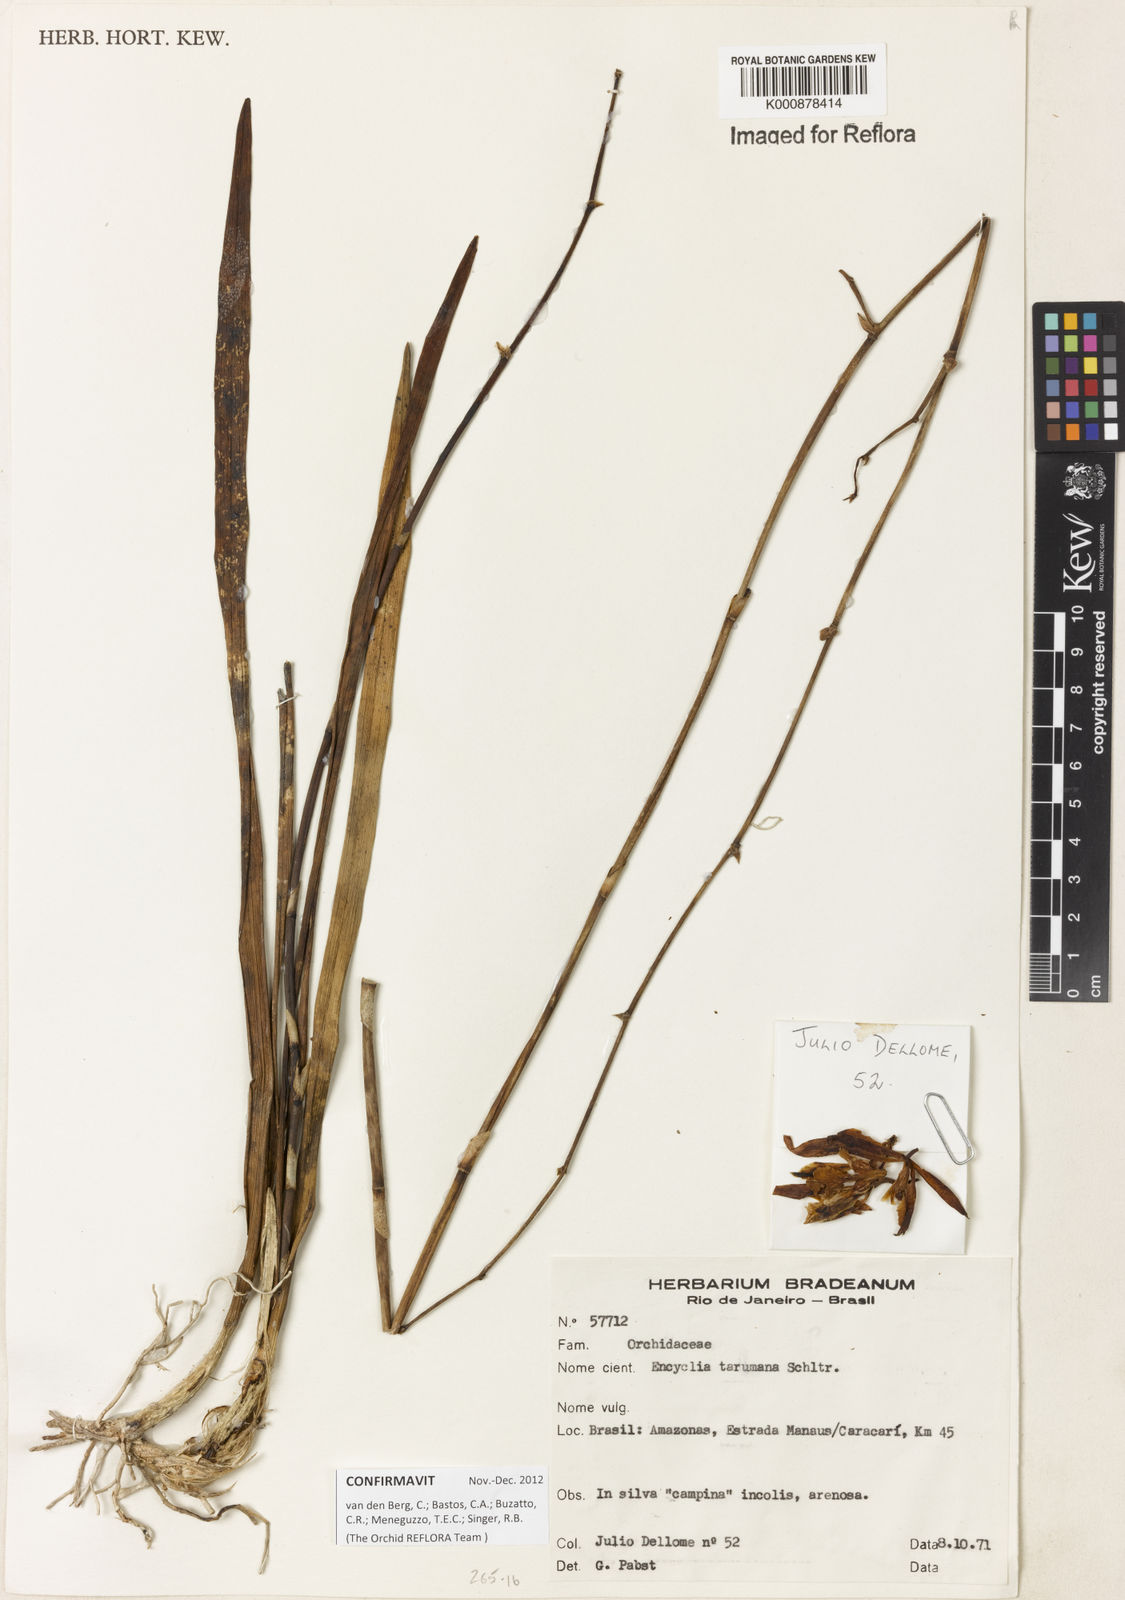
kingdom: Plantae
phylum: Tracheophyta
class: Liliopsida
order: Asparagales
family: Orchidaceae
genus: Encyclia
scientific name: Encyclia mapuerae
